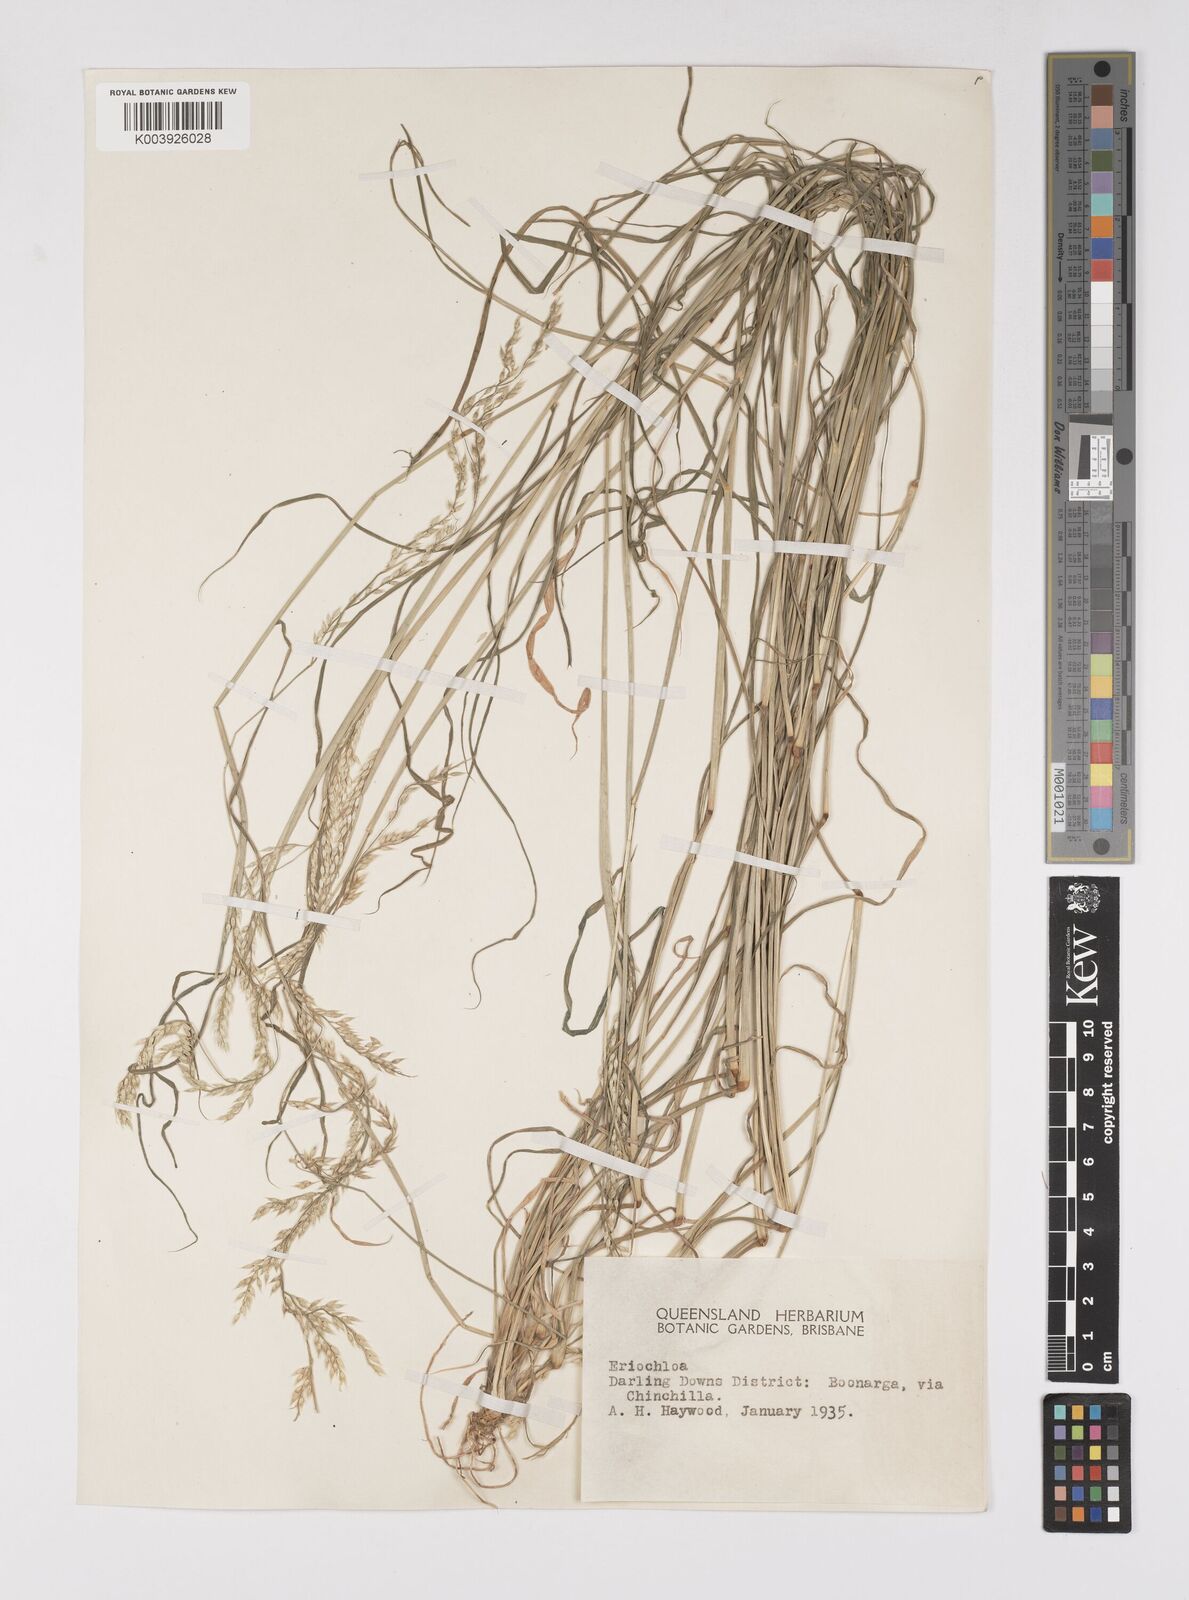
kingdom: Plantae
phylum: Tracheophyta
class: Liliopsida
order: Poales
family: Poaceae
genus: Eriochloa
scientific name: Eriochloa
